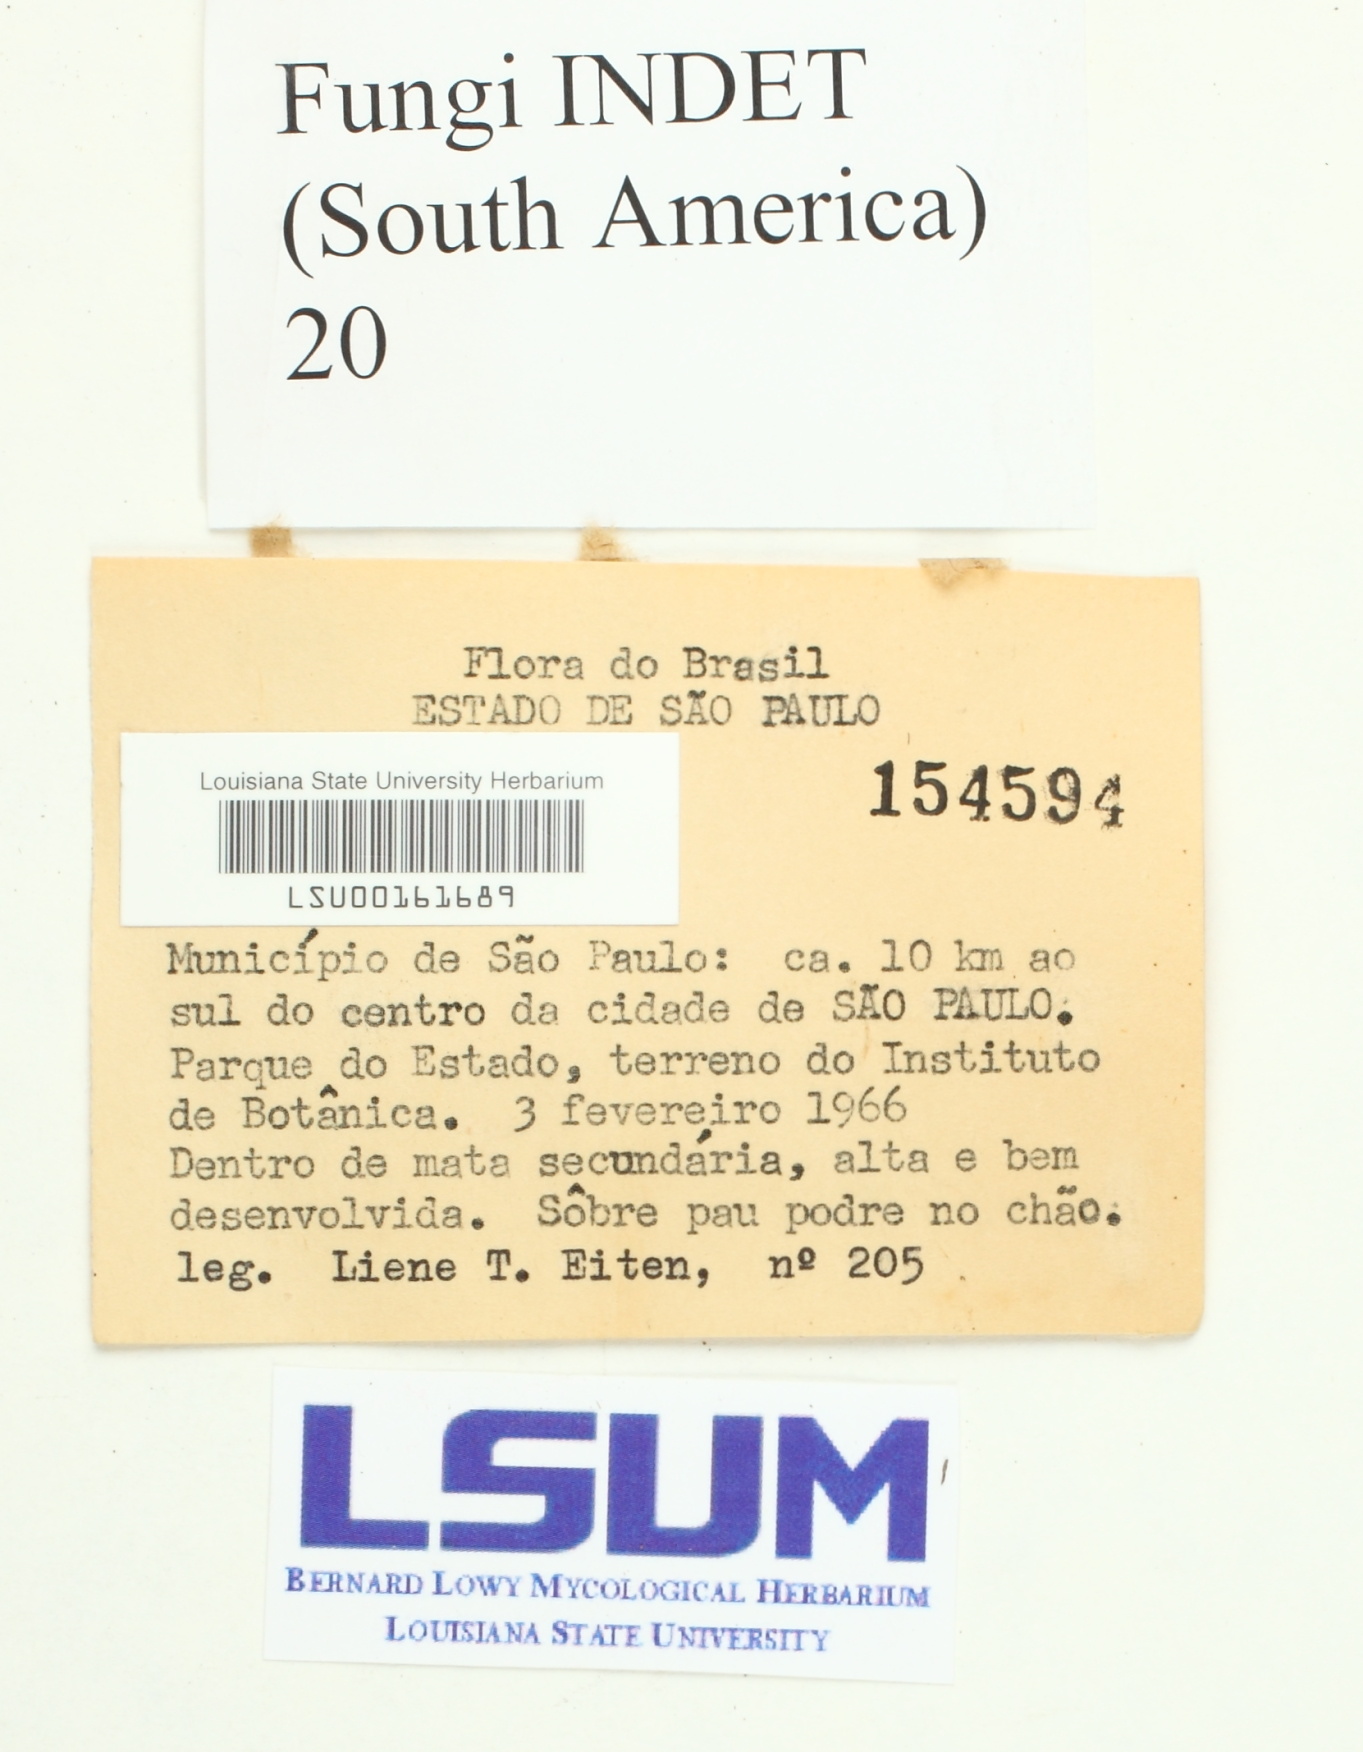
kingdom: Fungi
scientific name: Fungi
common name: Fungi
